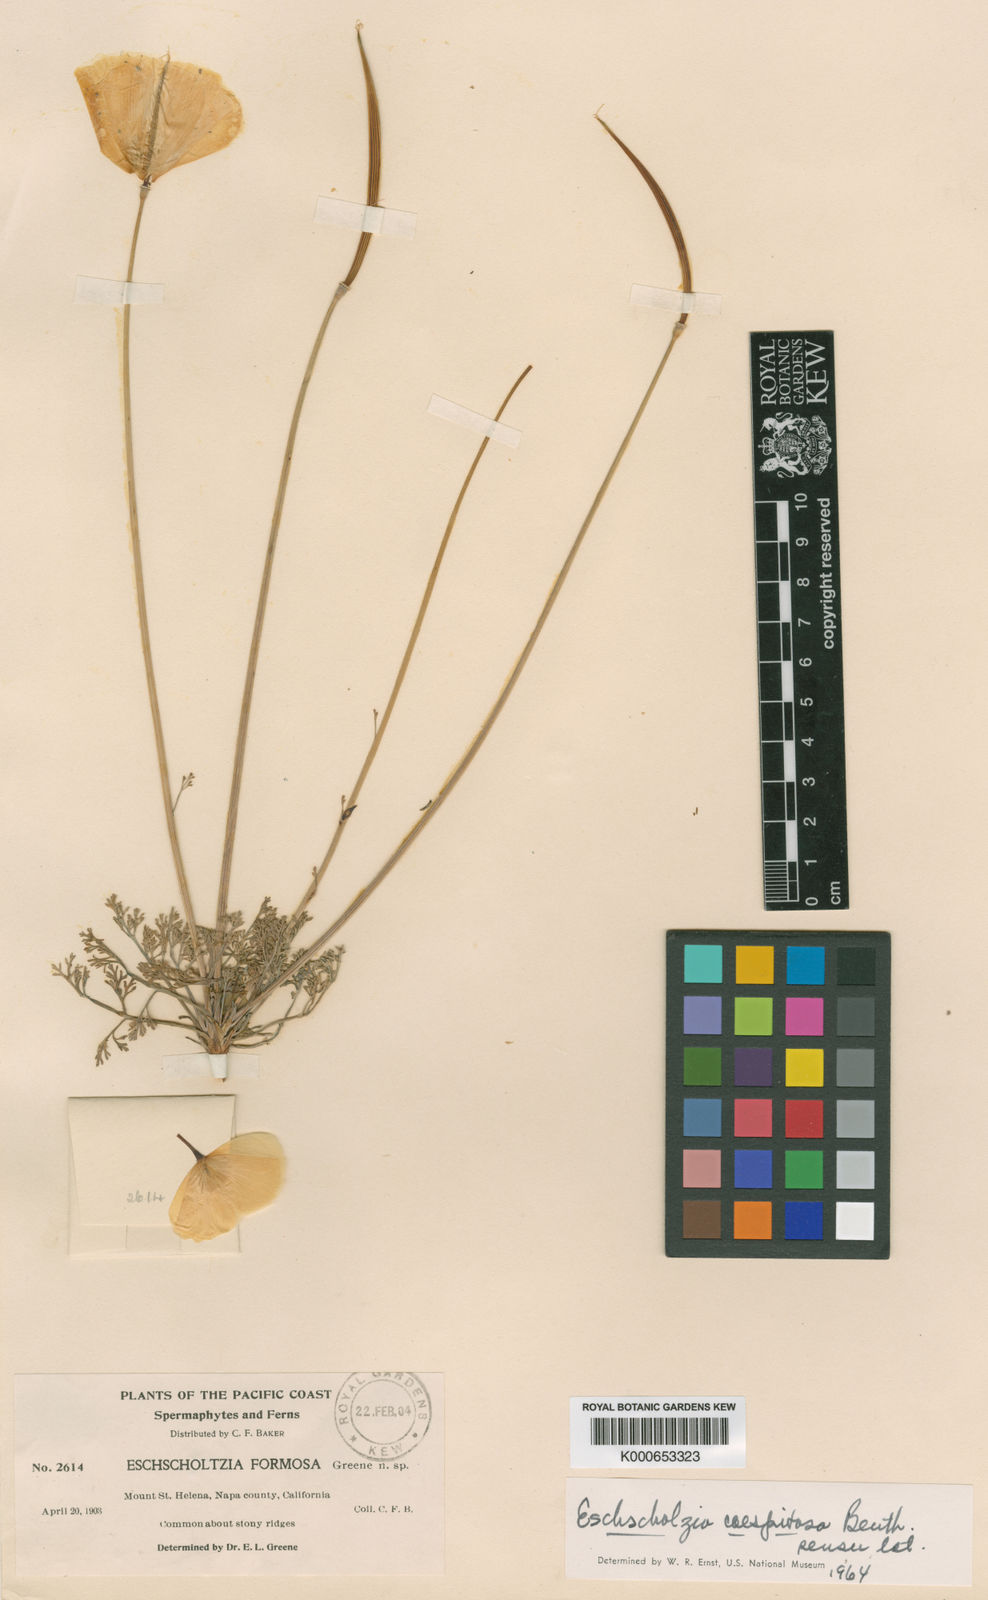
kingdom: Plantae
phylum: Tracheophyta
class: Magnoliopsida
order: Ranunculales
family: Papaveraceae
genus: Eschscholzia
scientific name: Eschscholzia caespitosa
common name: Tufted california-poppy
